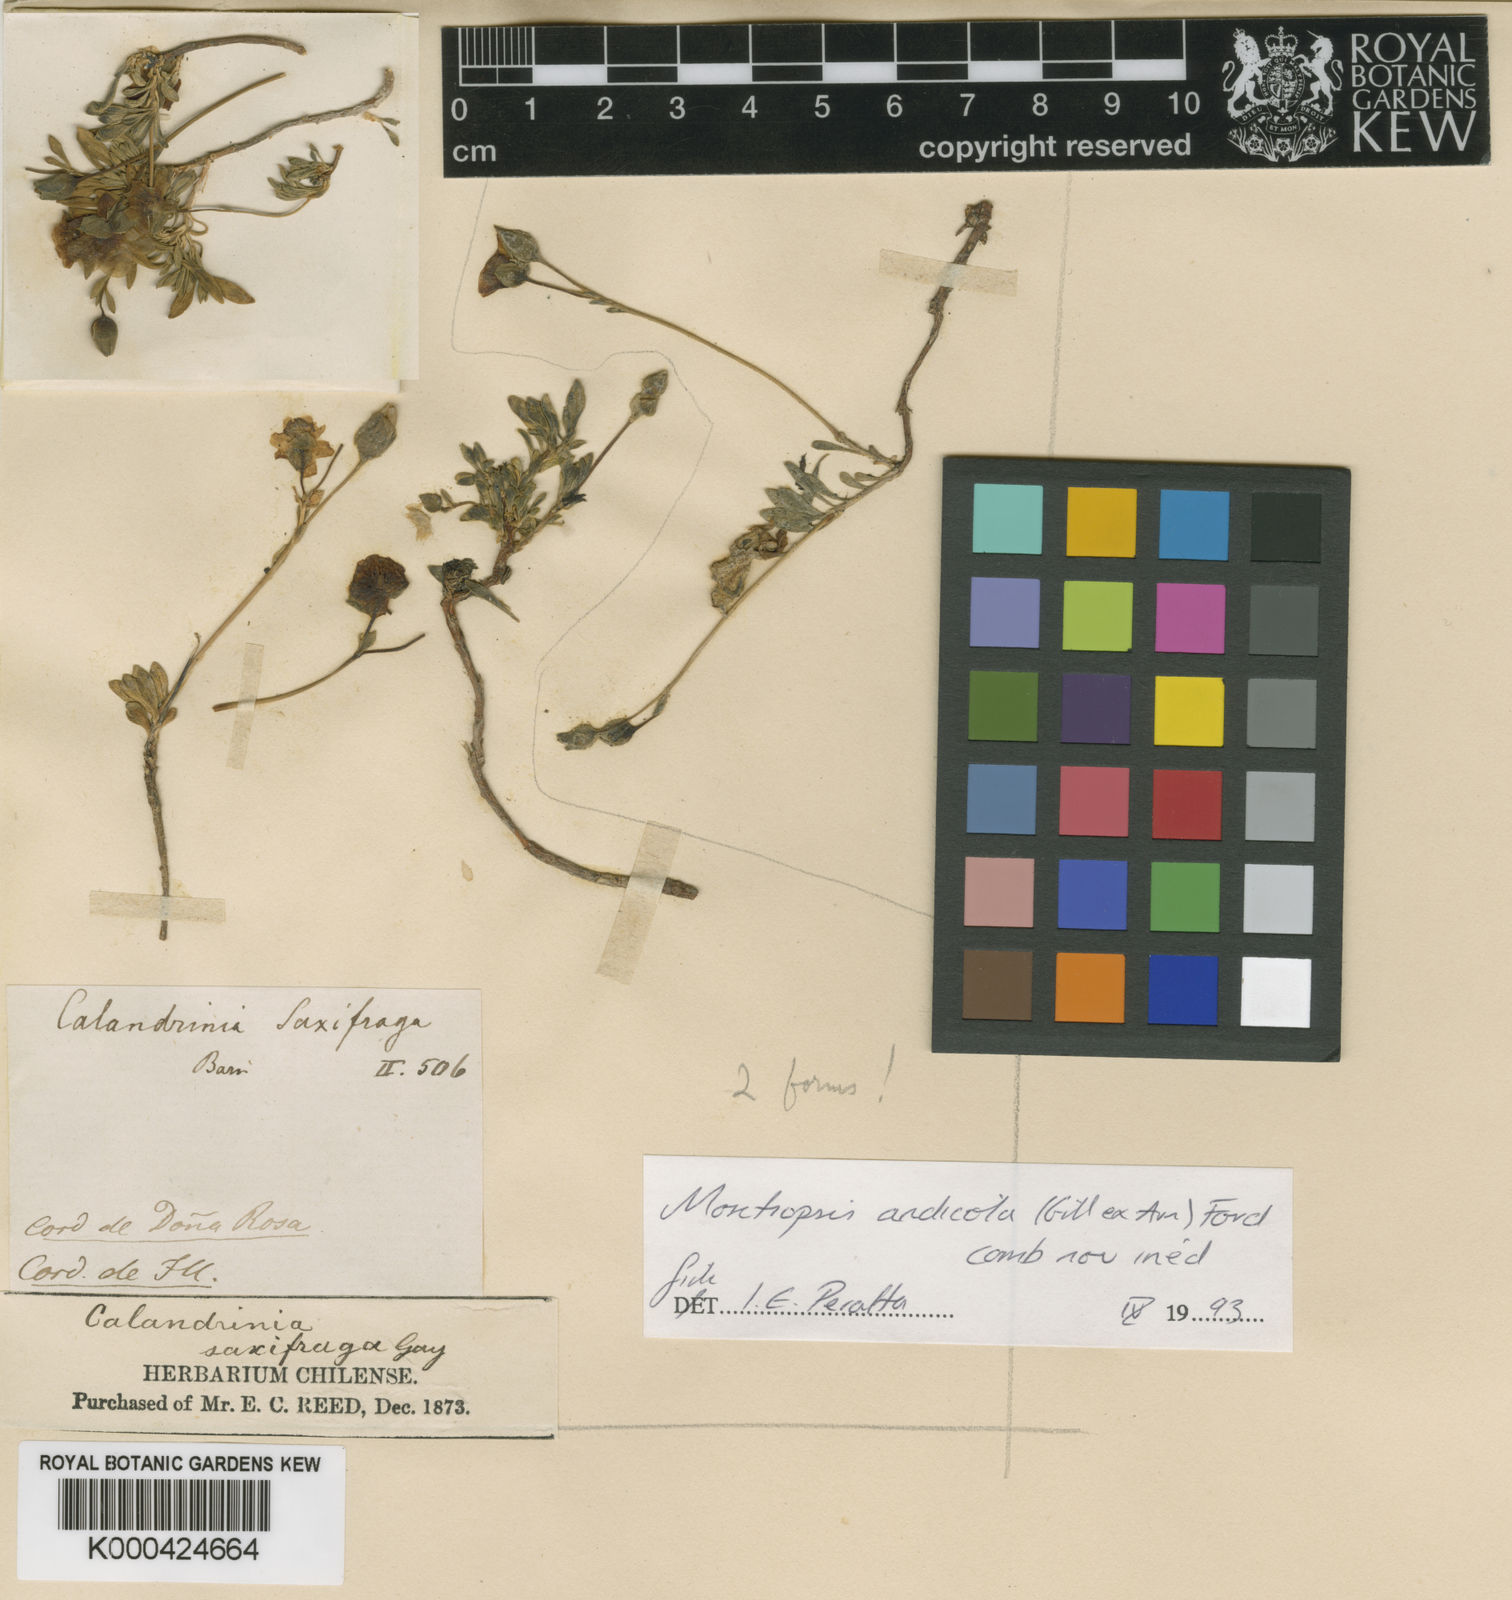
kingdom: Plantae
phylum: Tracheophyta
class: Magnoliopsida
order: Caryophyllales
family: Montiaceae
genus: Montiopsis
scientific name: Montiopsis andicola
